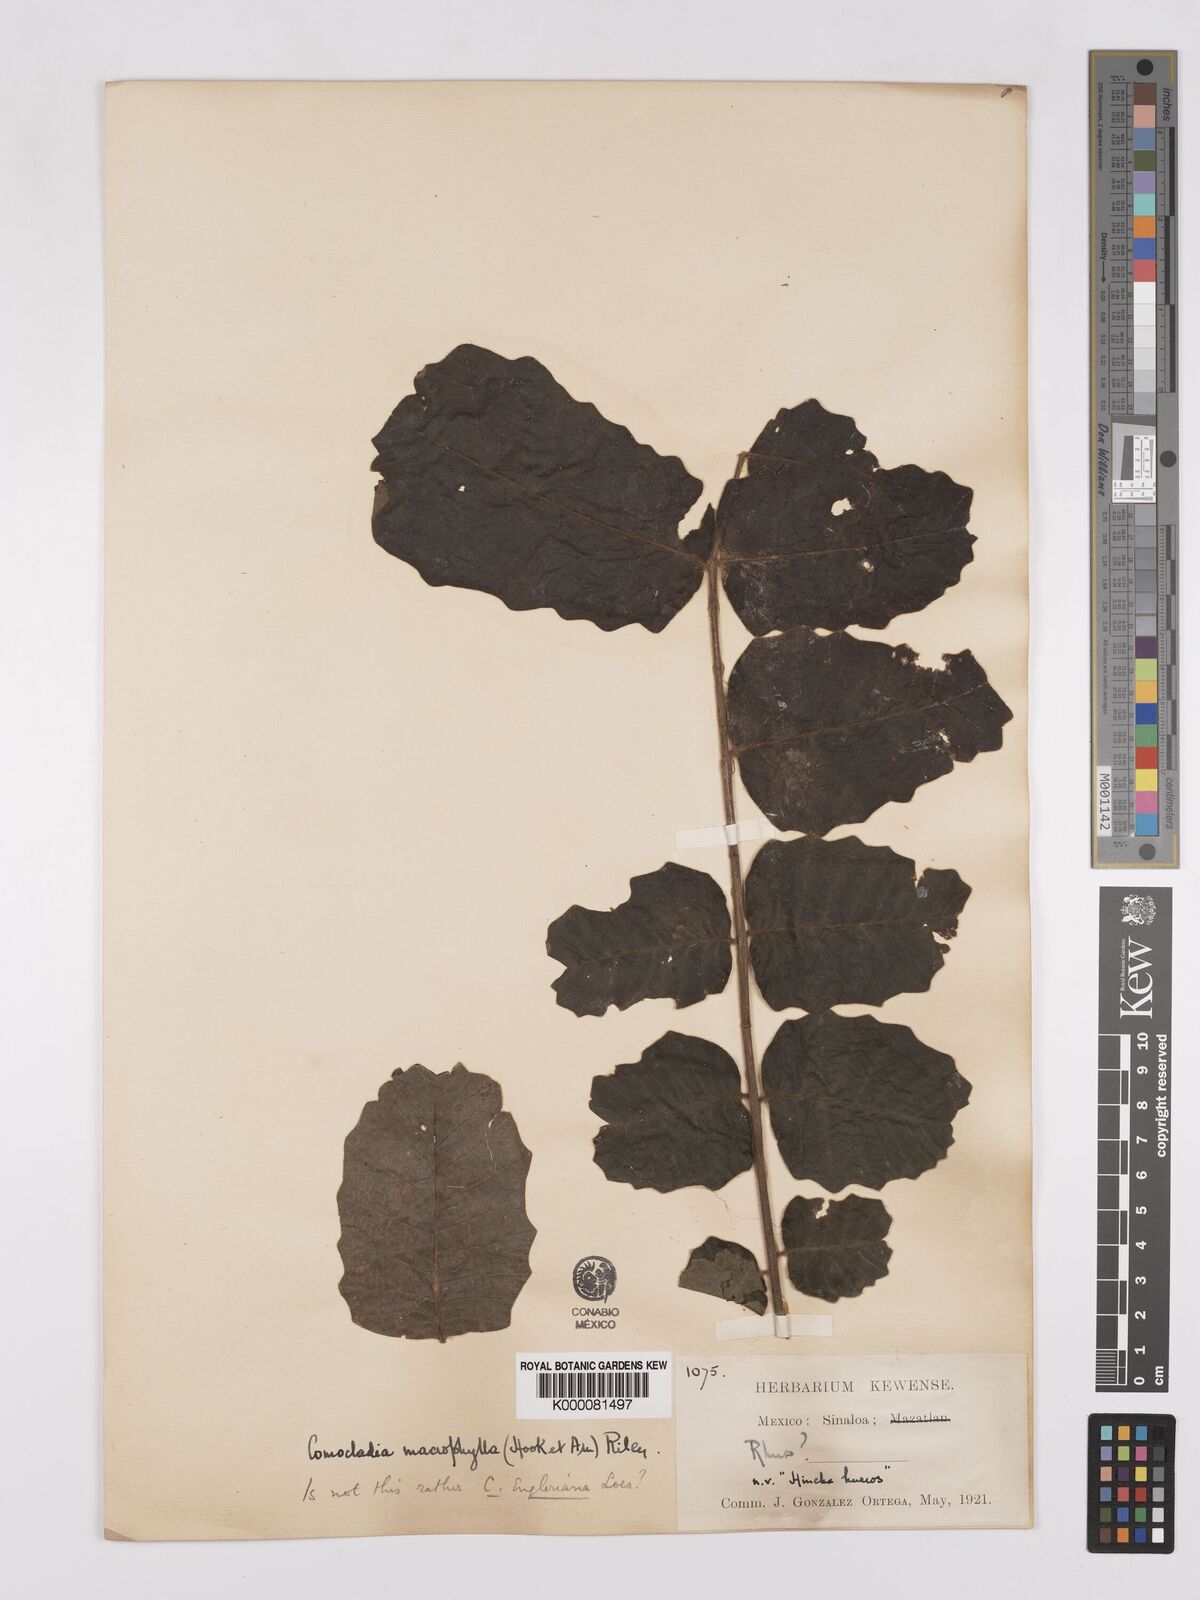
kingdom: Plantae
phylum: Tracheophyta
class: Magnoliopsida
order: Sapindales
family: Anacardiaceae
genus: Comocladia
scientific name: Comocladia
